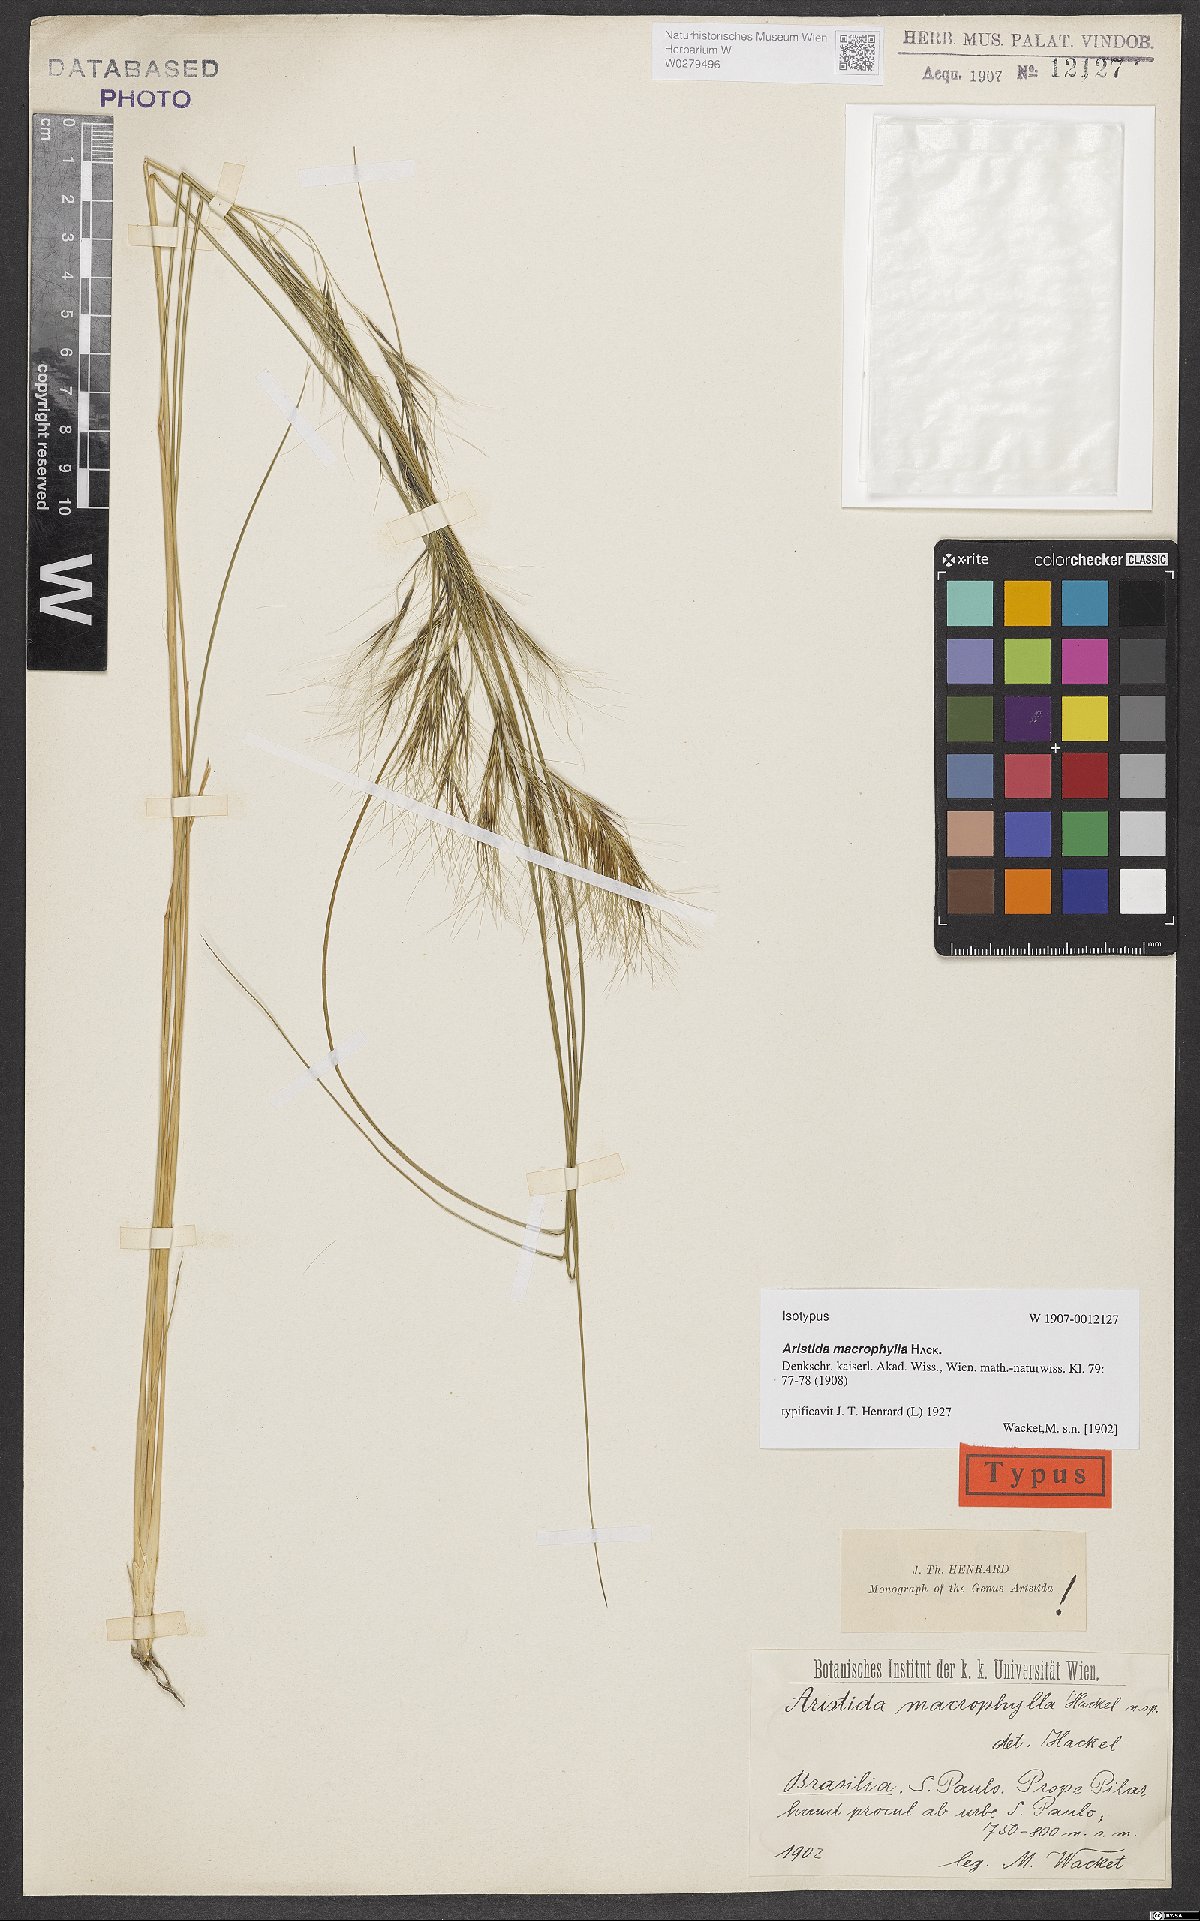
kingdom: Plantae
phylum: Tracheophyta
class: Liliopsida
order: Poales
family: Poaceae
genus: Aristida
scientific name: Aristida macrophylla
